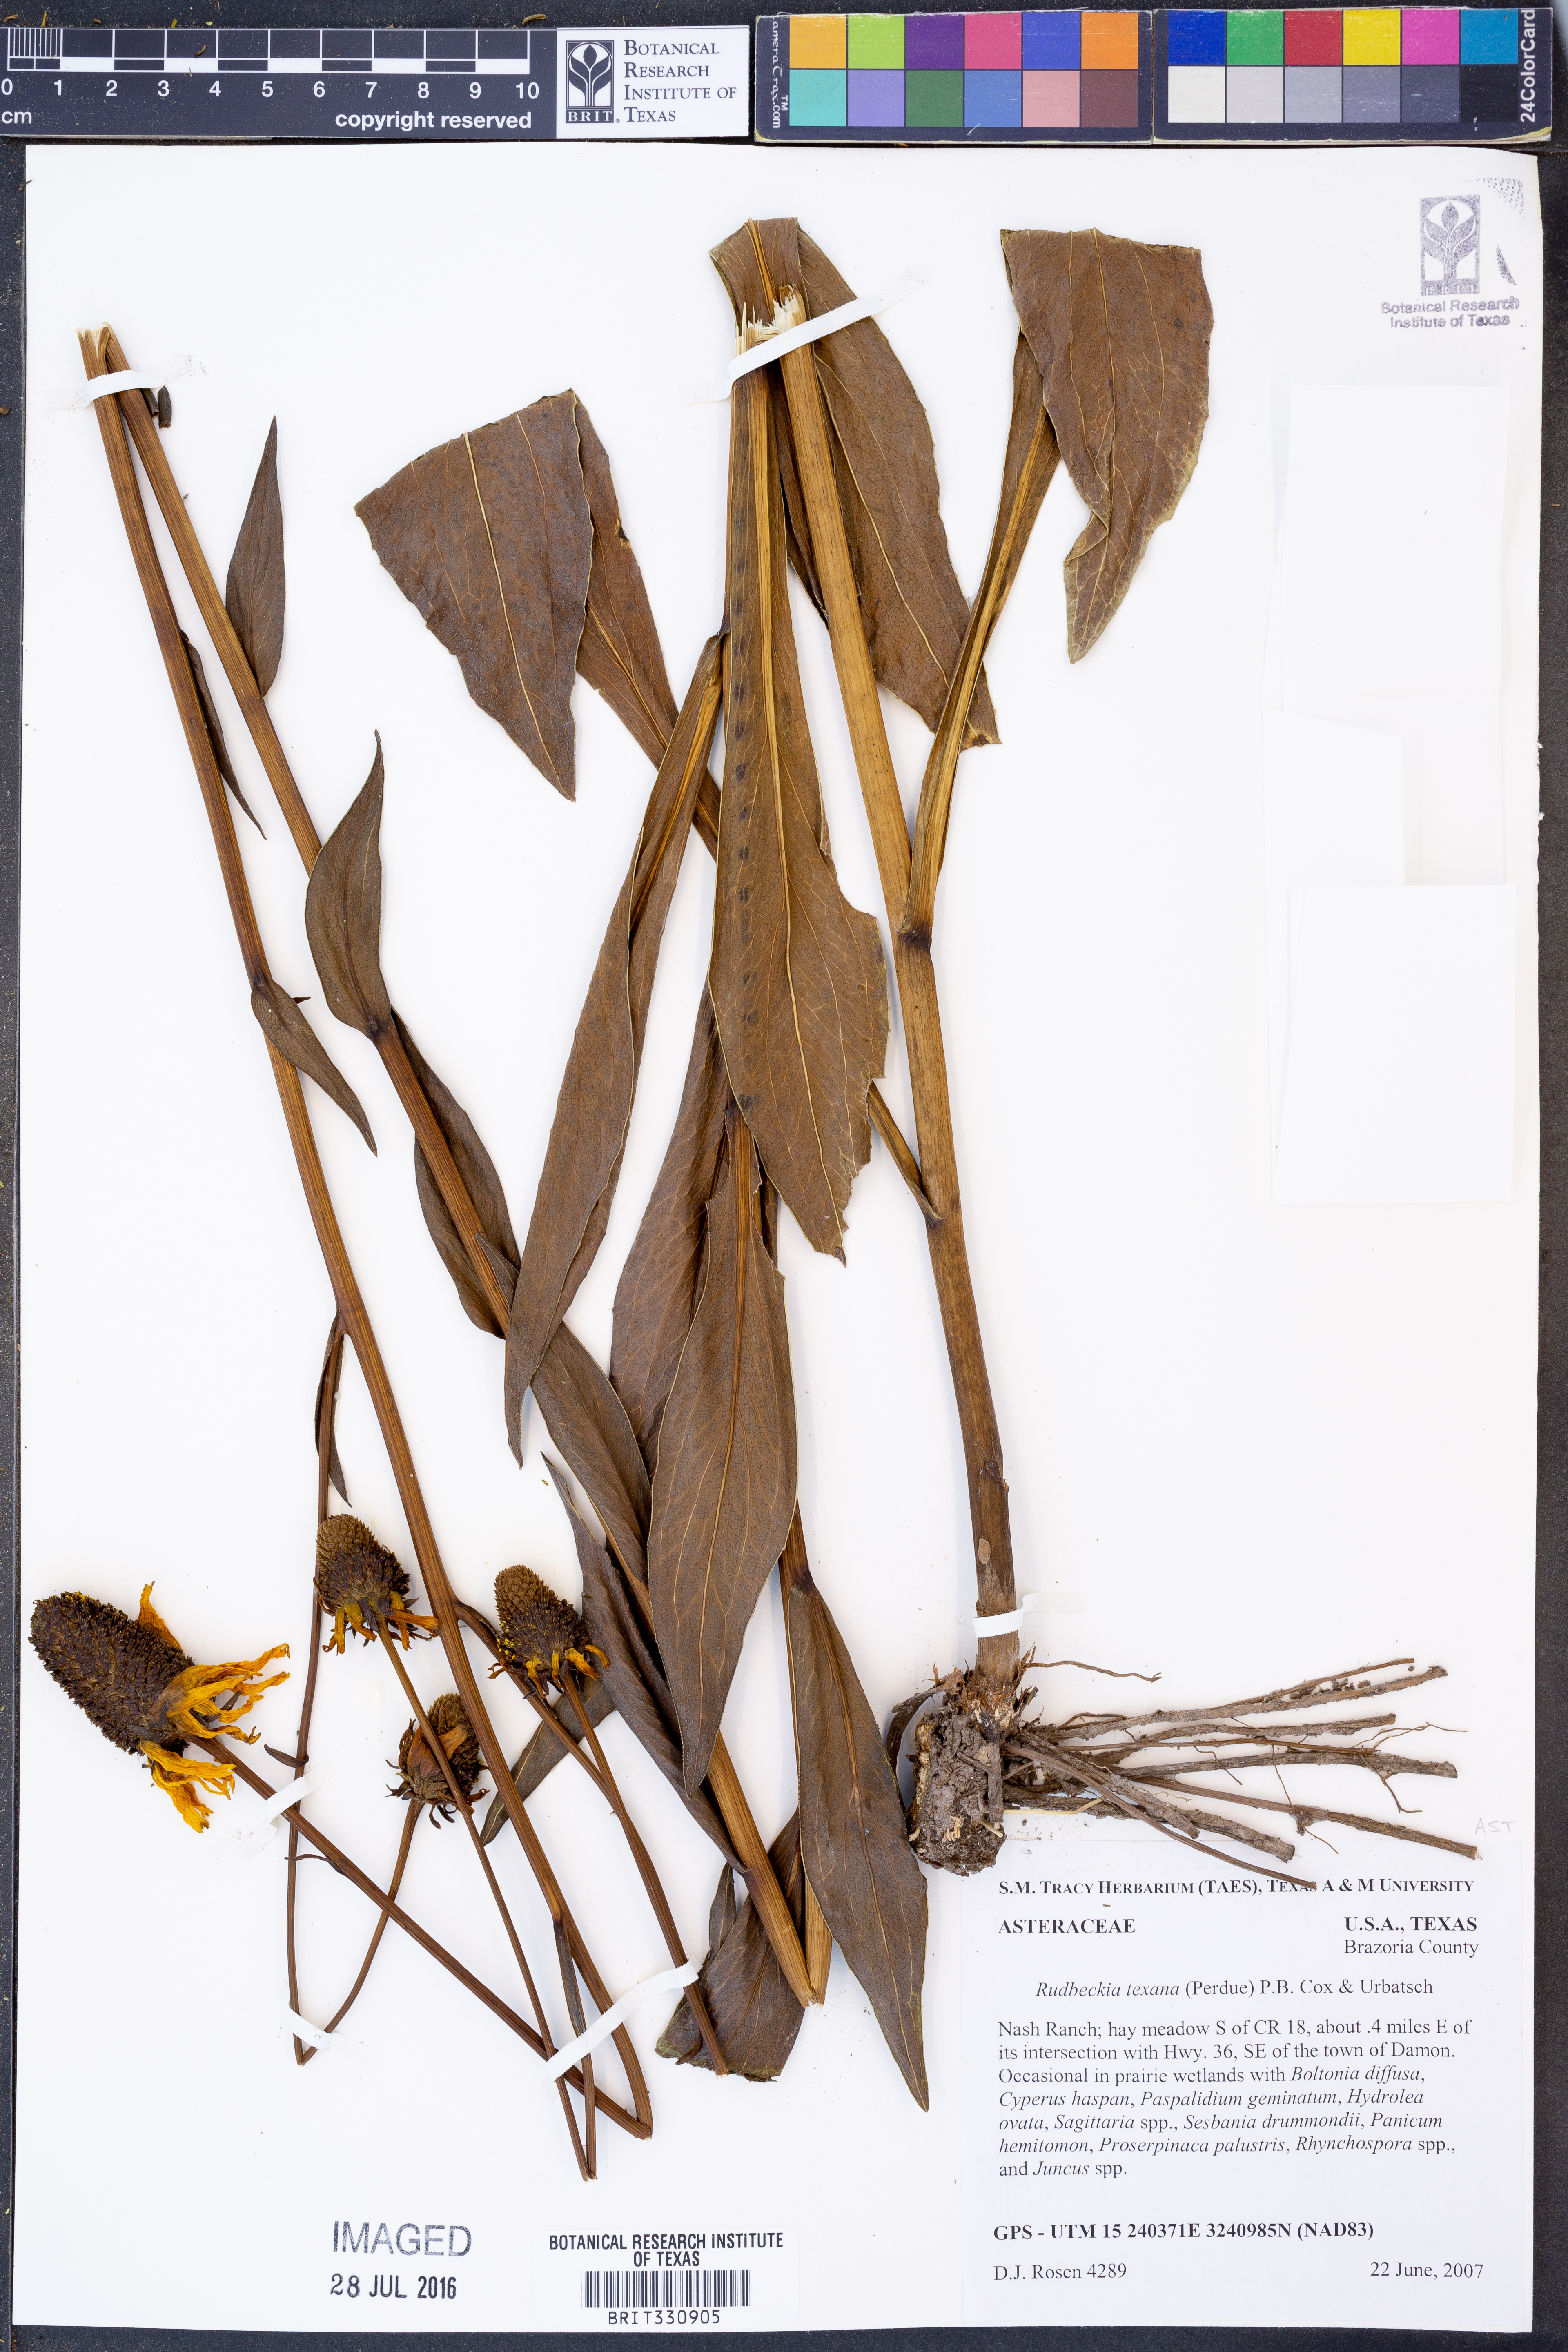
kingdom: Plantae
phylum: Tracheophyta
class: Magnoliopsida
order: Asterales
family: Asteraceae
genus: Rudbeckia
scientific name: Rudbeckia texana
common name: Texas coneflower
